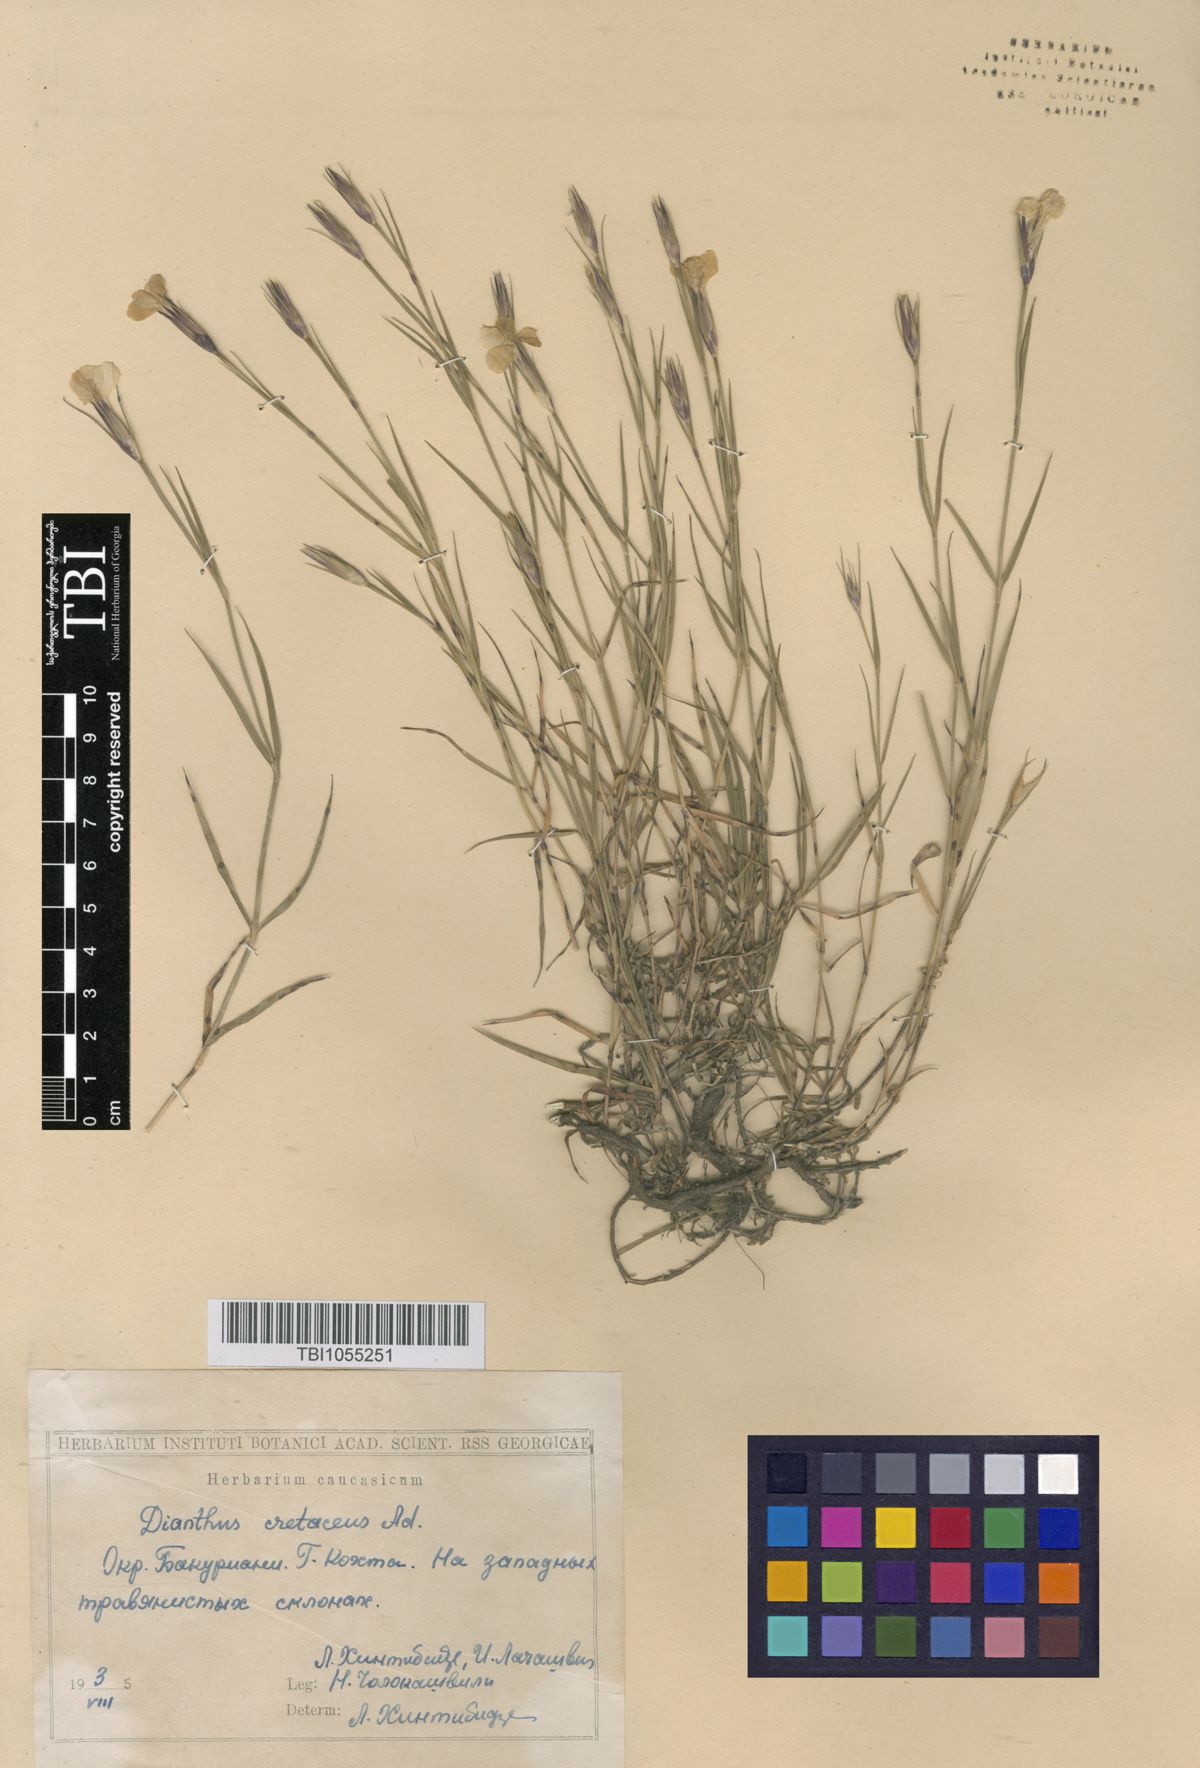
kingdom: Plantae
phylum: Tracheophyta
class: Magnoliopsida
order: Caryophyllales
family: Caryophyllaceae
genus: Dianthus
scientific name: Dianthus cretaceus
